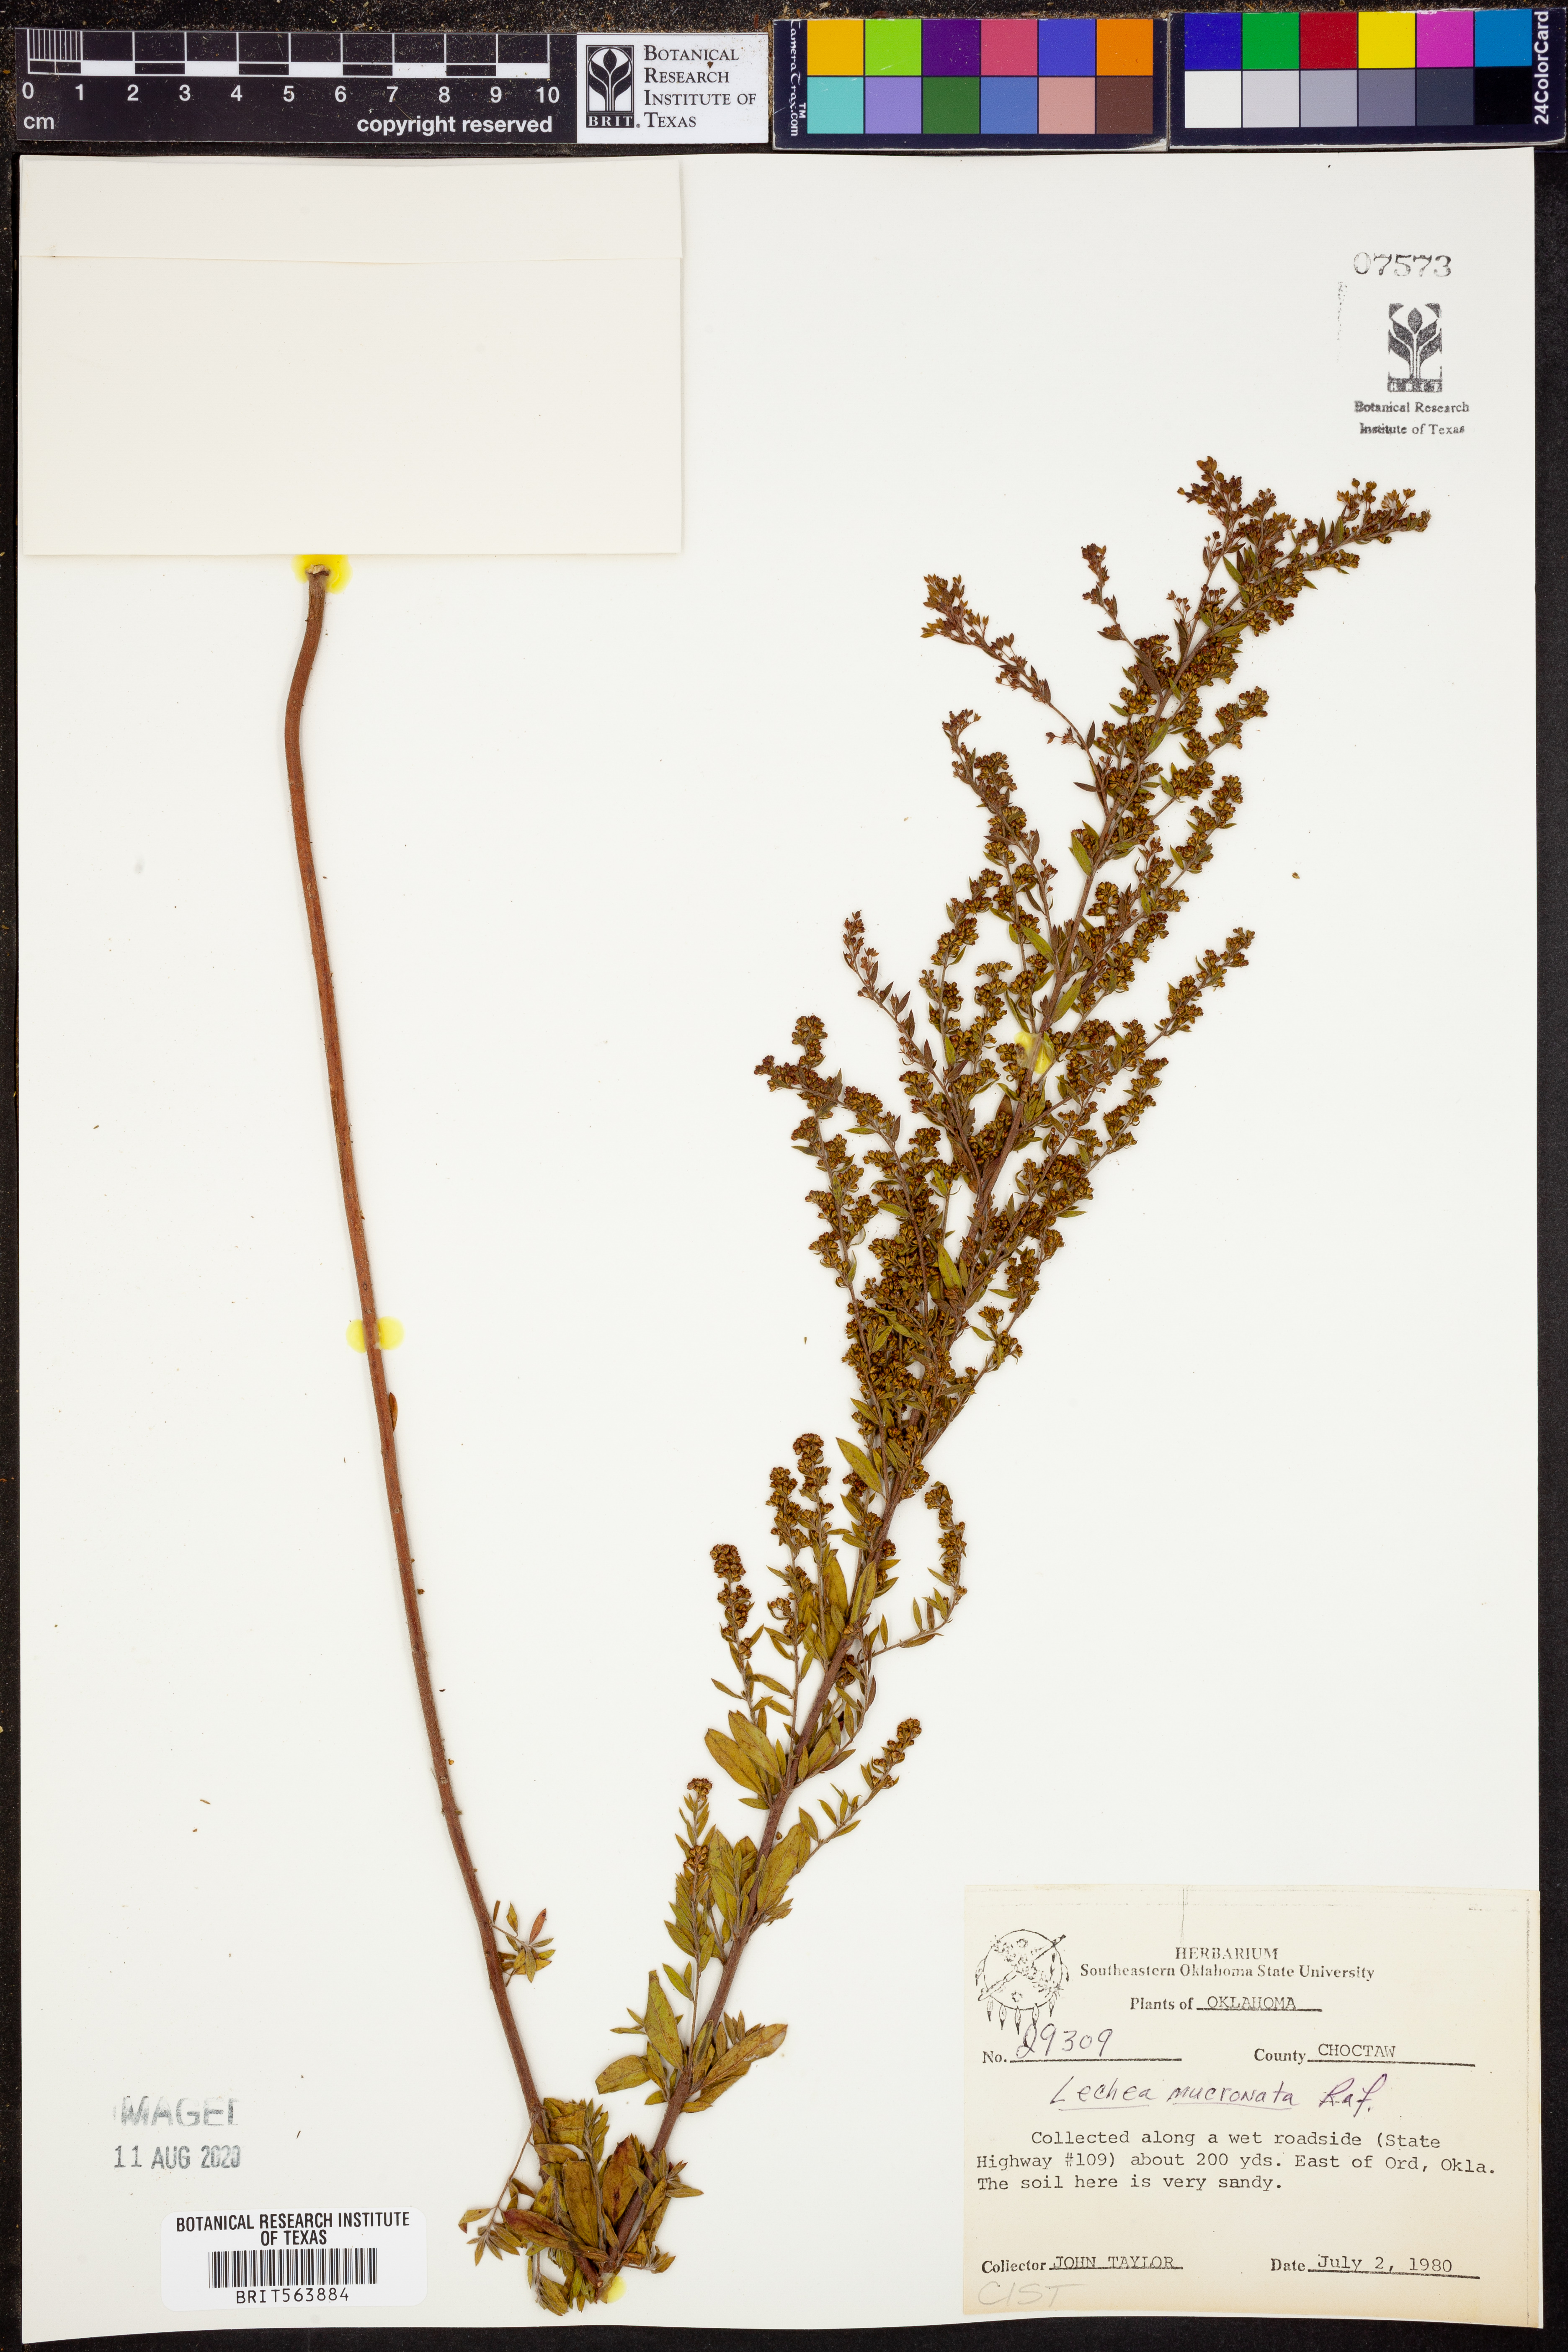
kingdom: Plantae
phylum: Tracheophyta
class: Magnoliopsida
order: Malvales
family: Cistaceae
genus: Lechea
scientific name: Lechea mucronata
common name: Hairy pinweed
